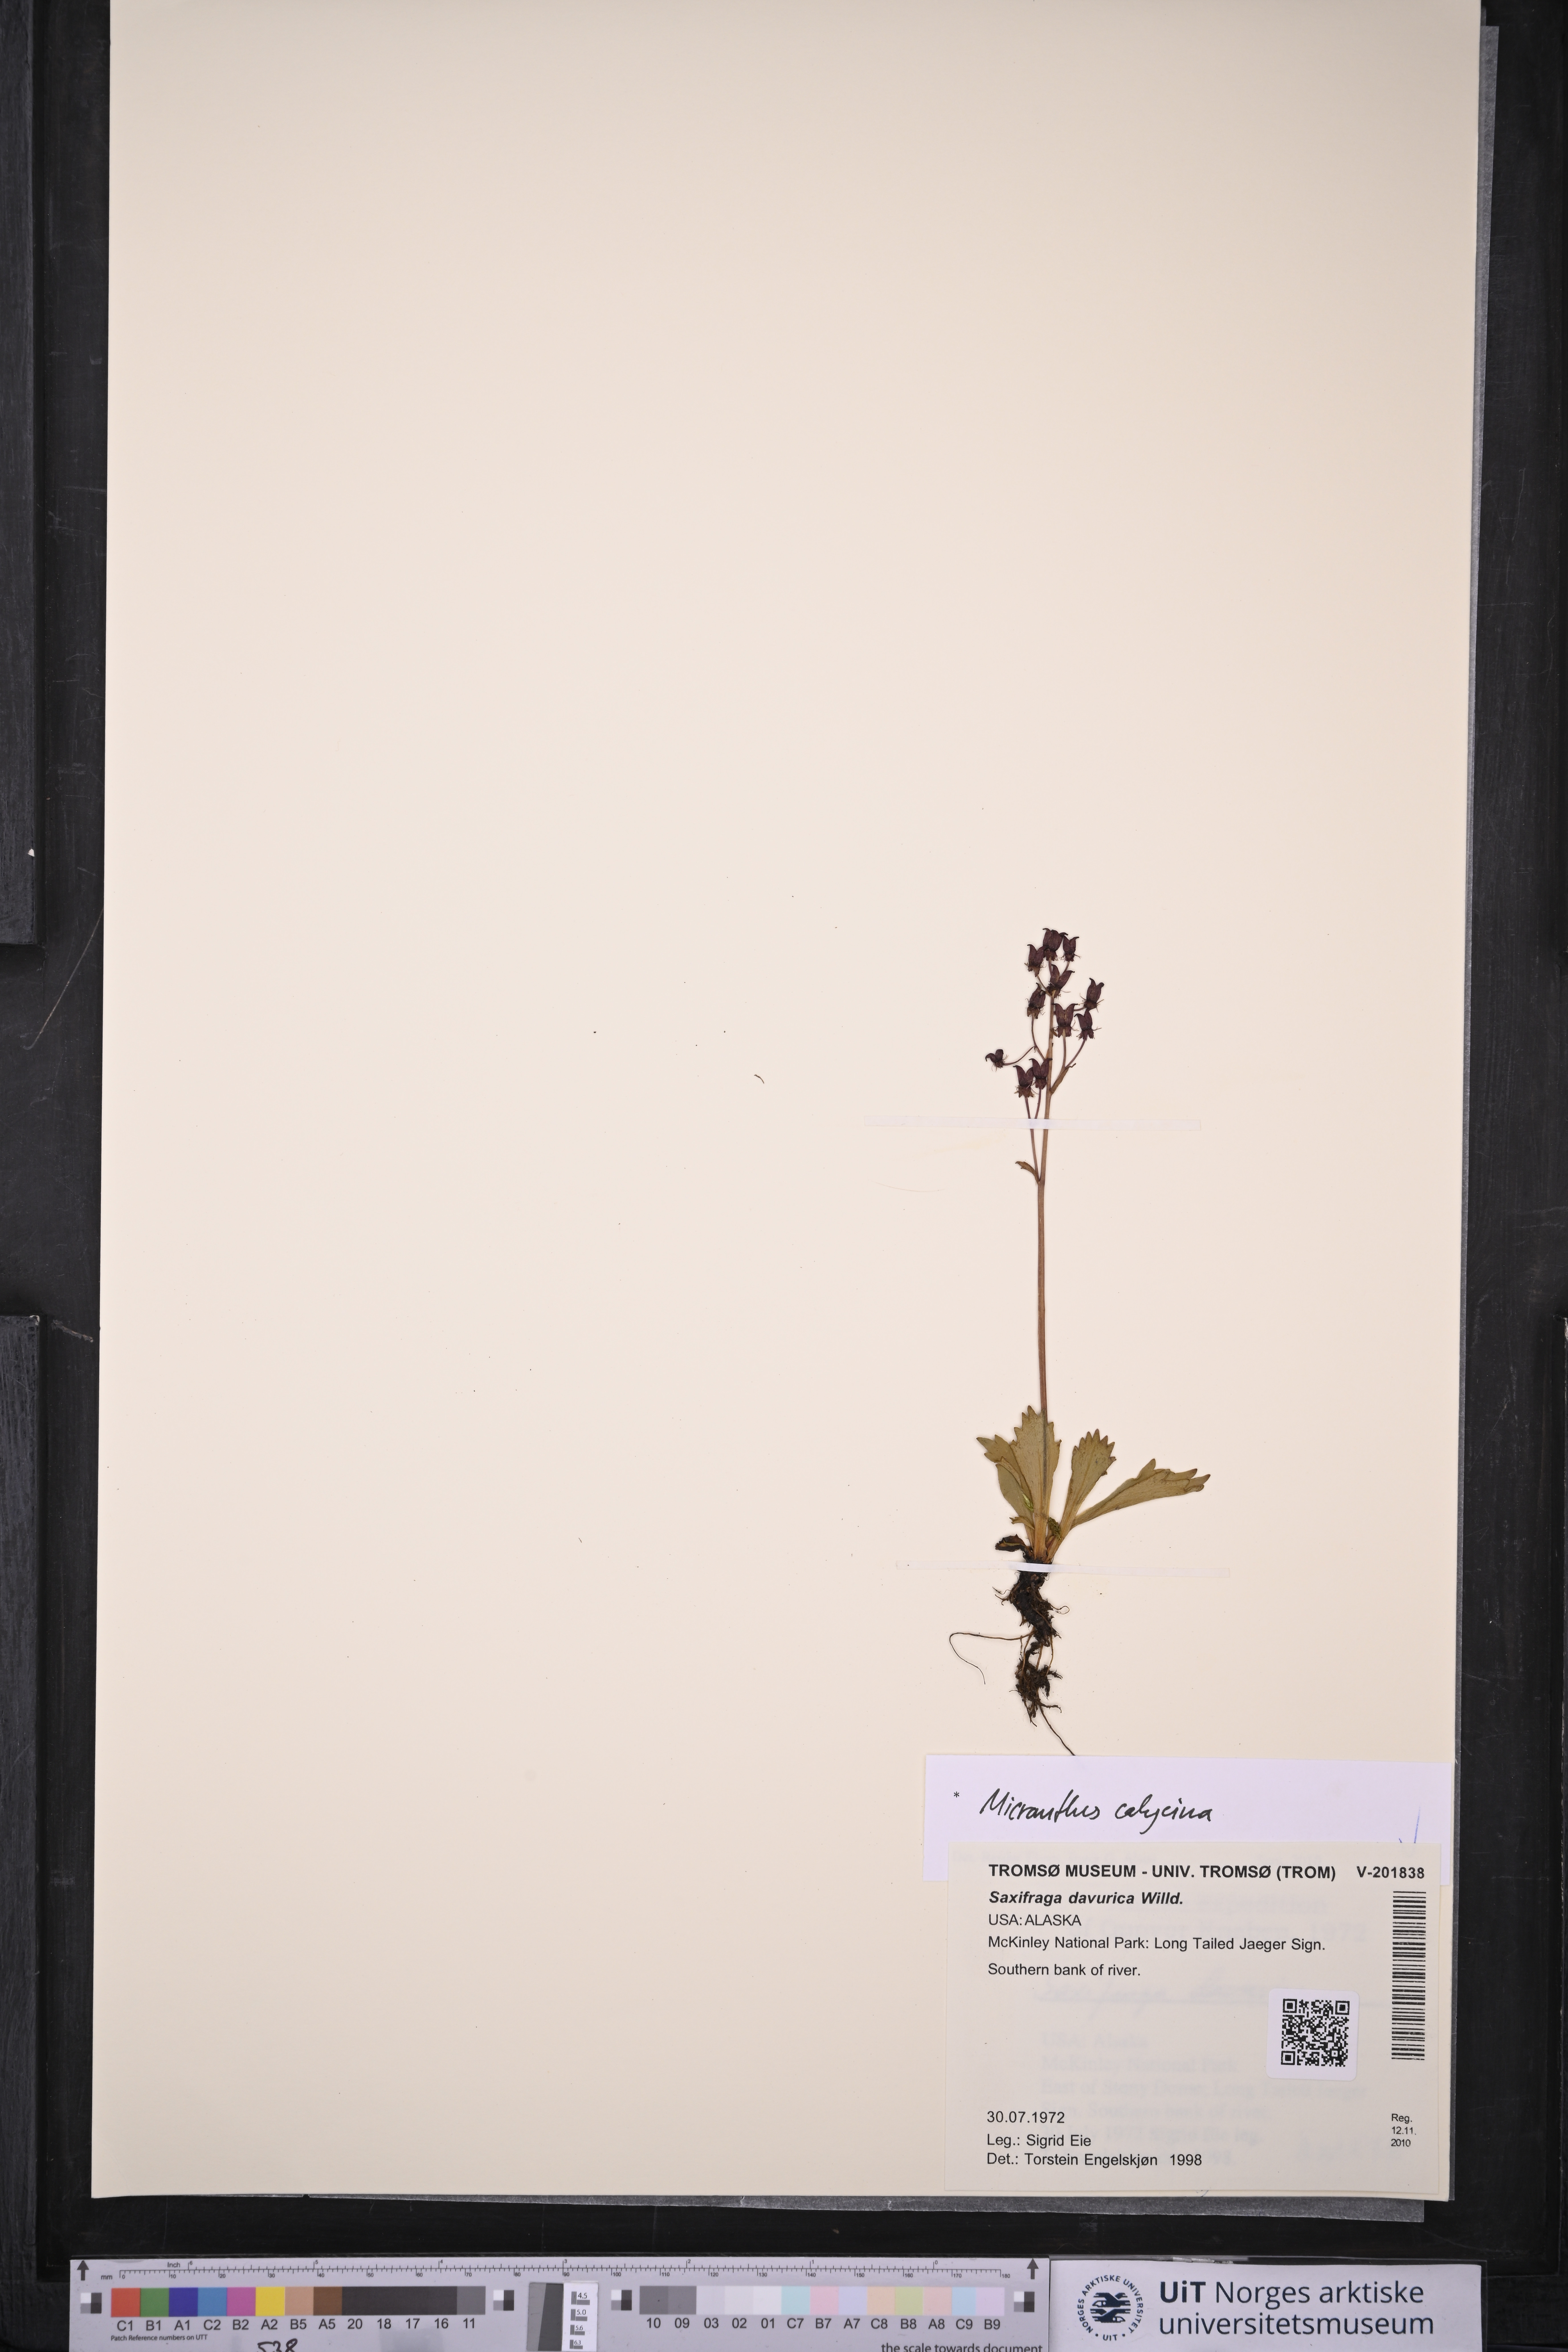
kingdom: Plantae
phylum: Tracheophyta
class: Magnoliopsida
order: Saxifragales
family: Saxifragaceae
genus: Micranthes
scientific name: Micranthes calycina
